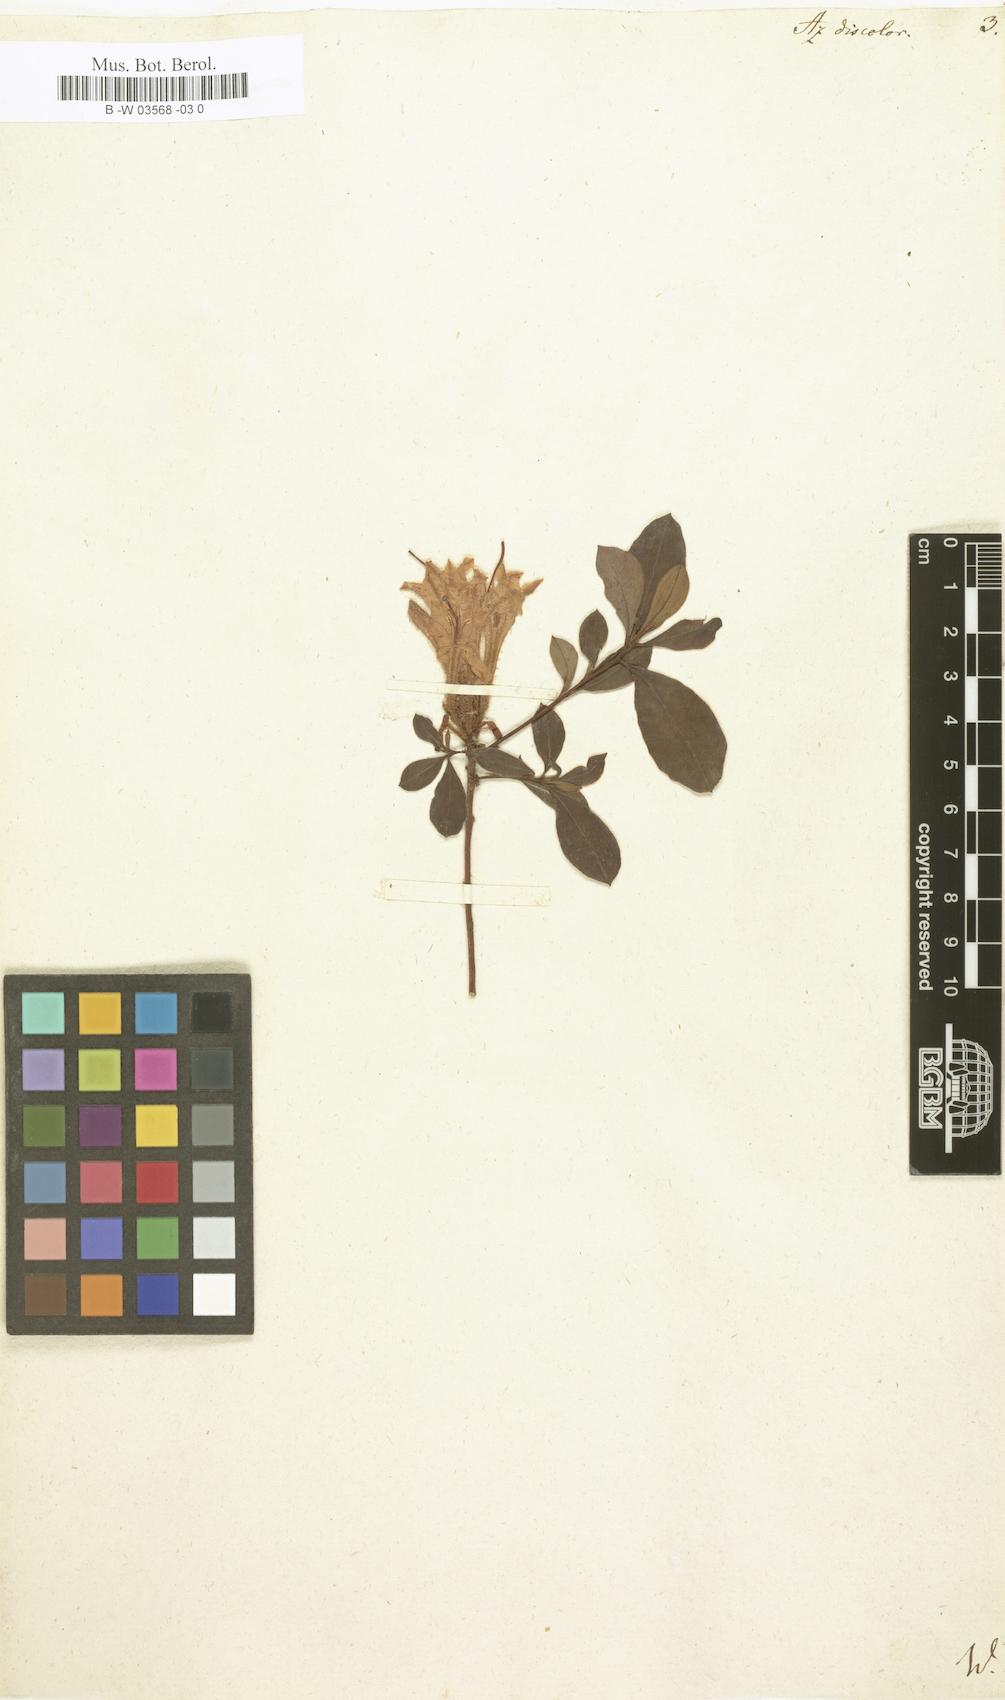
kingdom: Plantae
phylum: Tracheophyta
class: Magnoliopsida
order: Ericales
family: Ericaceae
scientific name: Ericaceae
